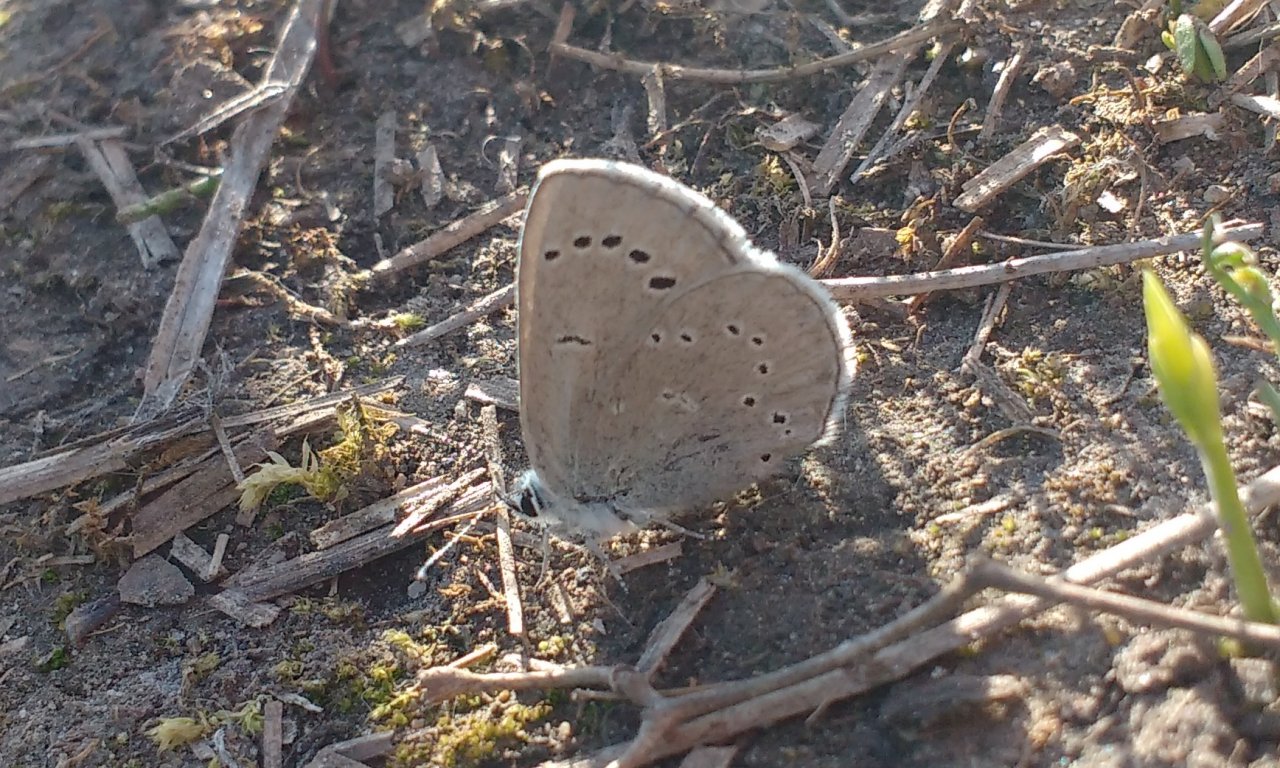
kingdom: Animalia
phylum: Arthropoda
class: Insecta
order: Lepidoptera
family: Lycaenidae
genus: Glaucopsyche
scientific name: Glaucopsyche lygdamus
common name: Silvery Blue
